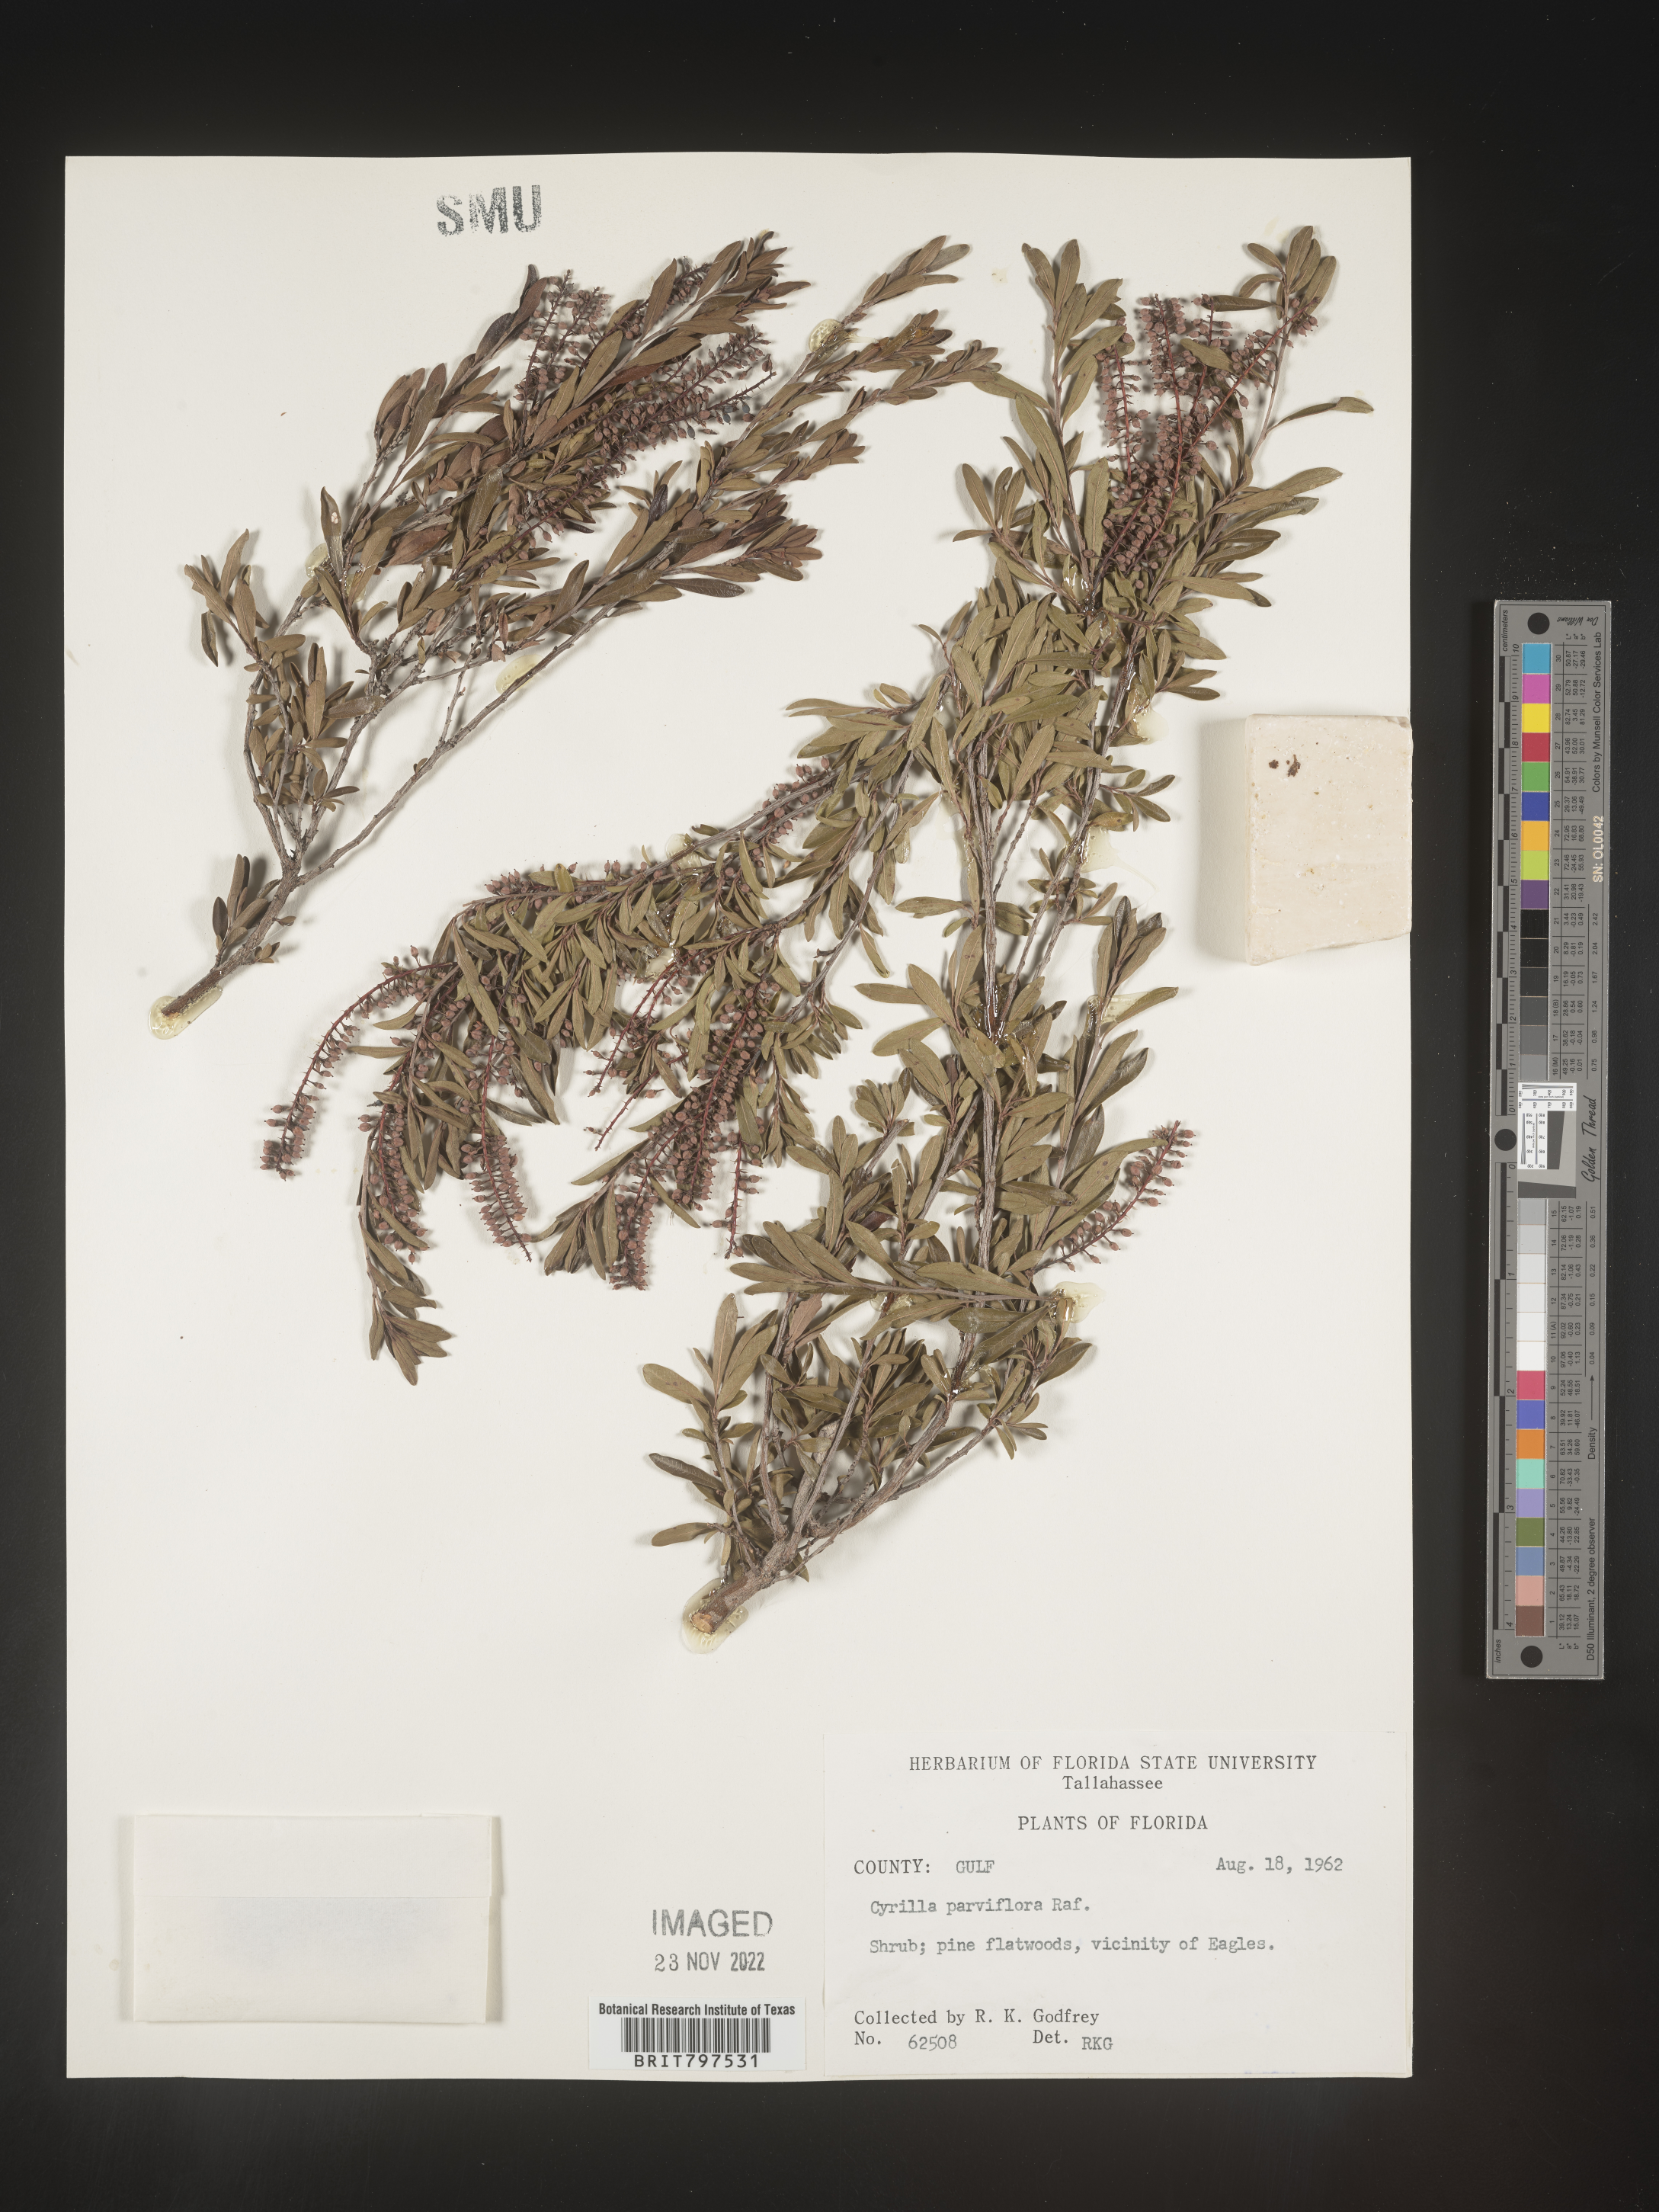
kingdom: Plantae
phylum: Tracheophyta
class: Magnoliopsida
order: Ericales
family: Cyrillaceae
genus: Cyrilla
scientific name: Cyrilla racemiflora
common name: Black titi
